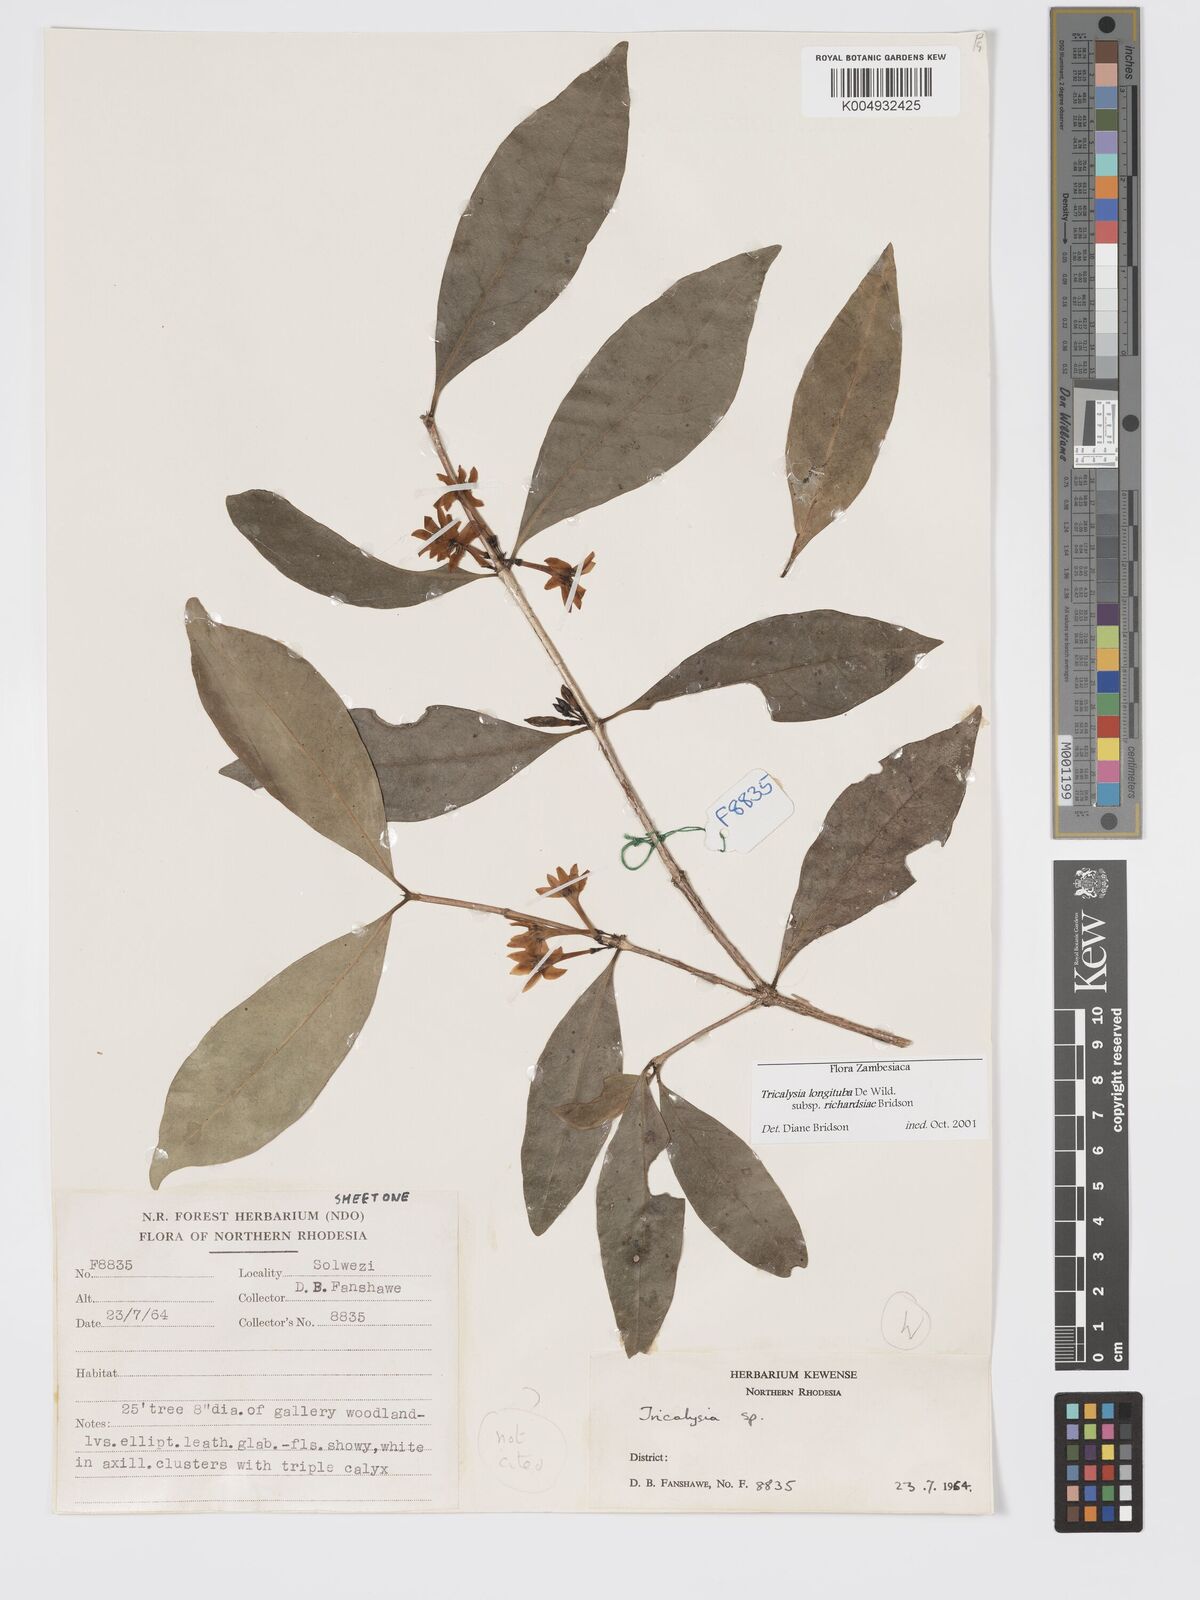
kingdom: Plantae
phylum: Tracheophyta
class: Magnoliopsida
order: Gentianales
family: Rubiaceae
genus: Tricalysia
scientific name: Tricalysia
